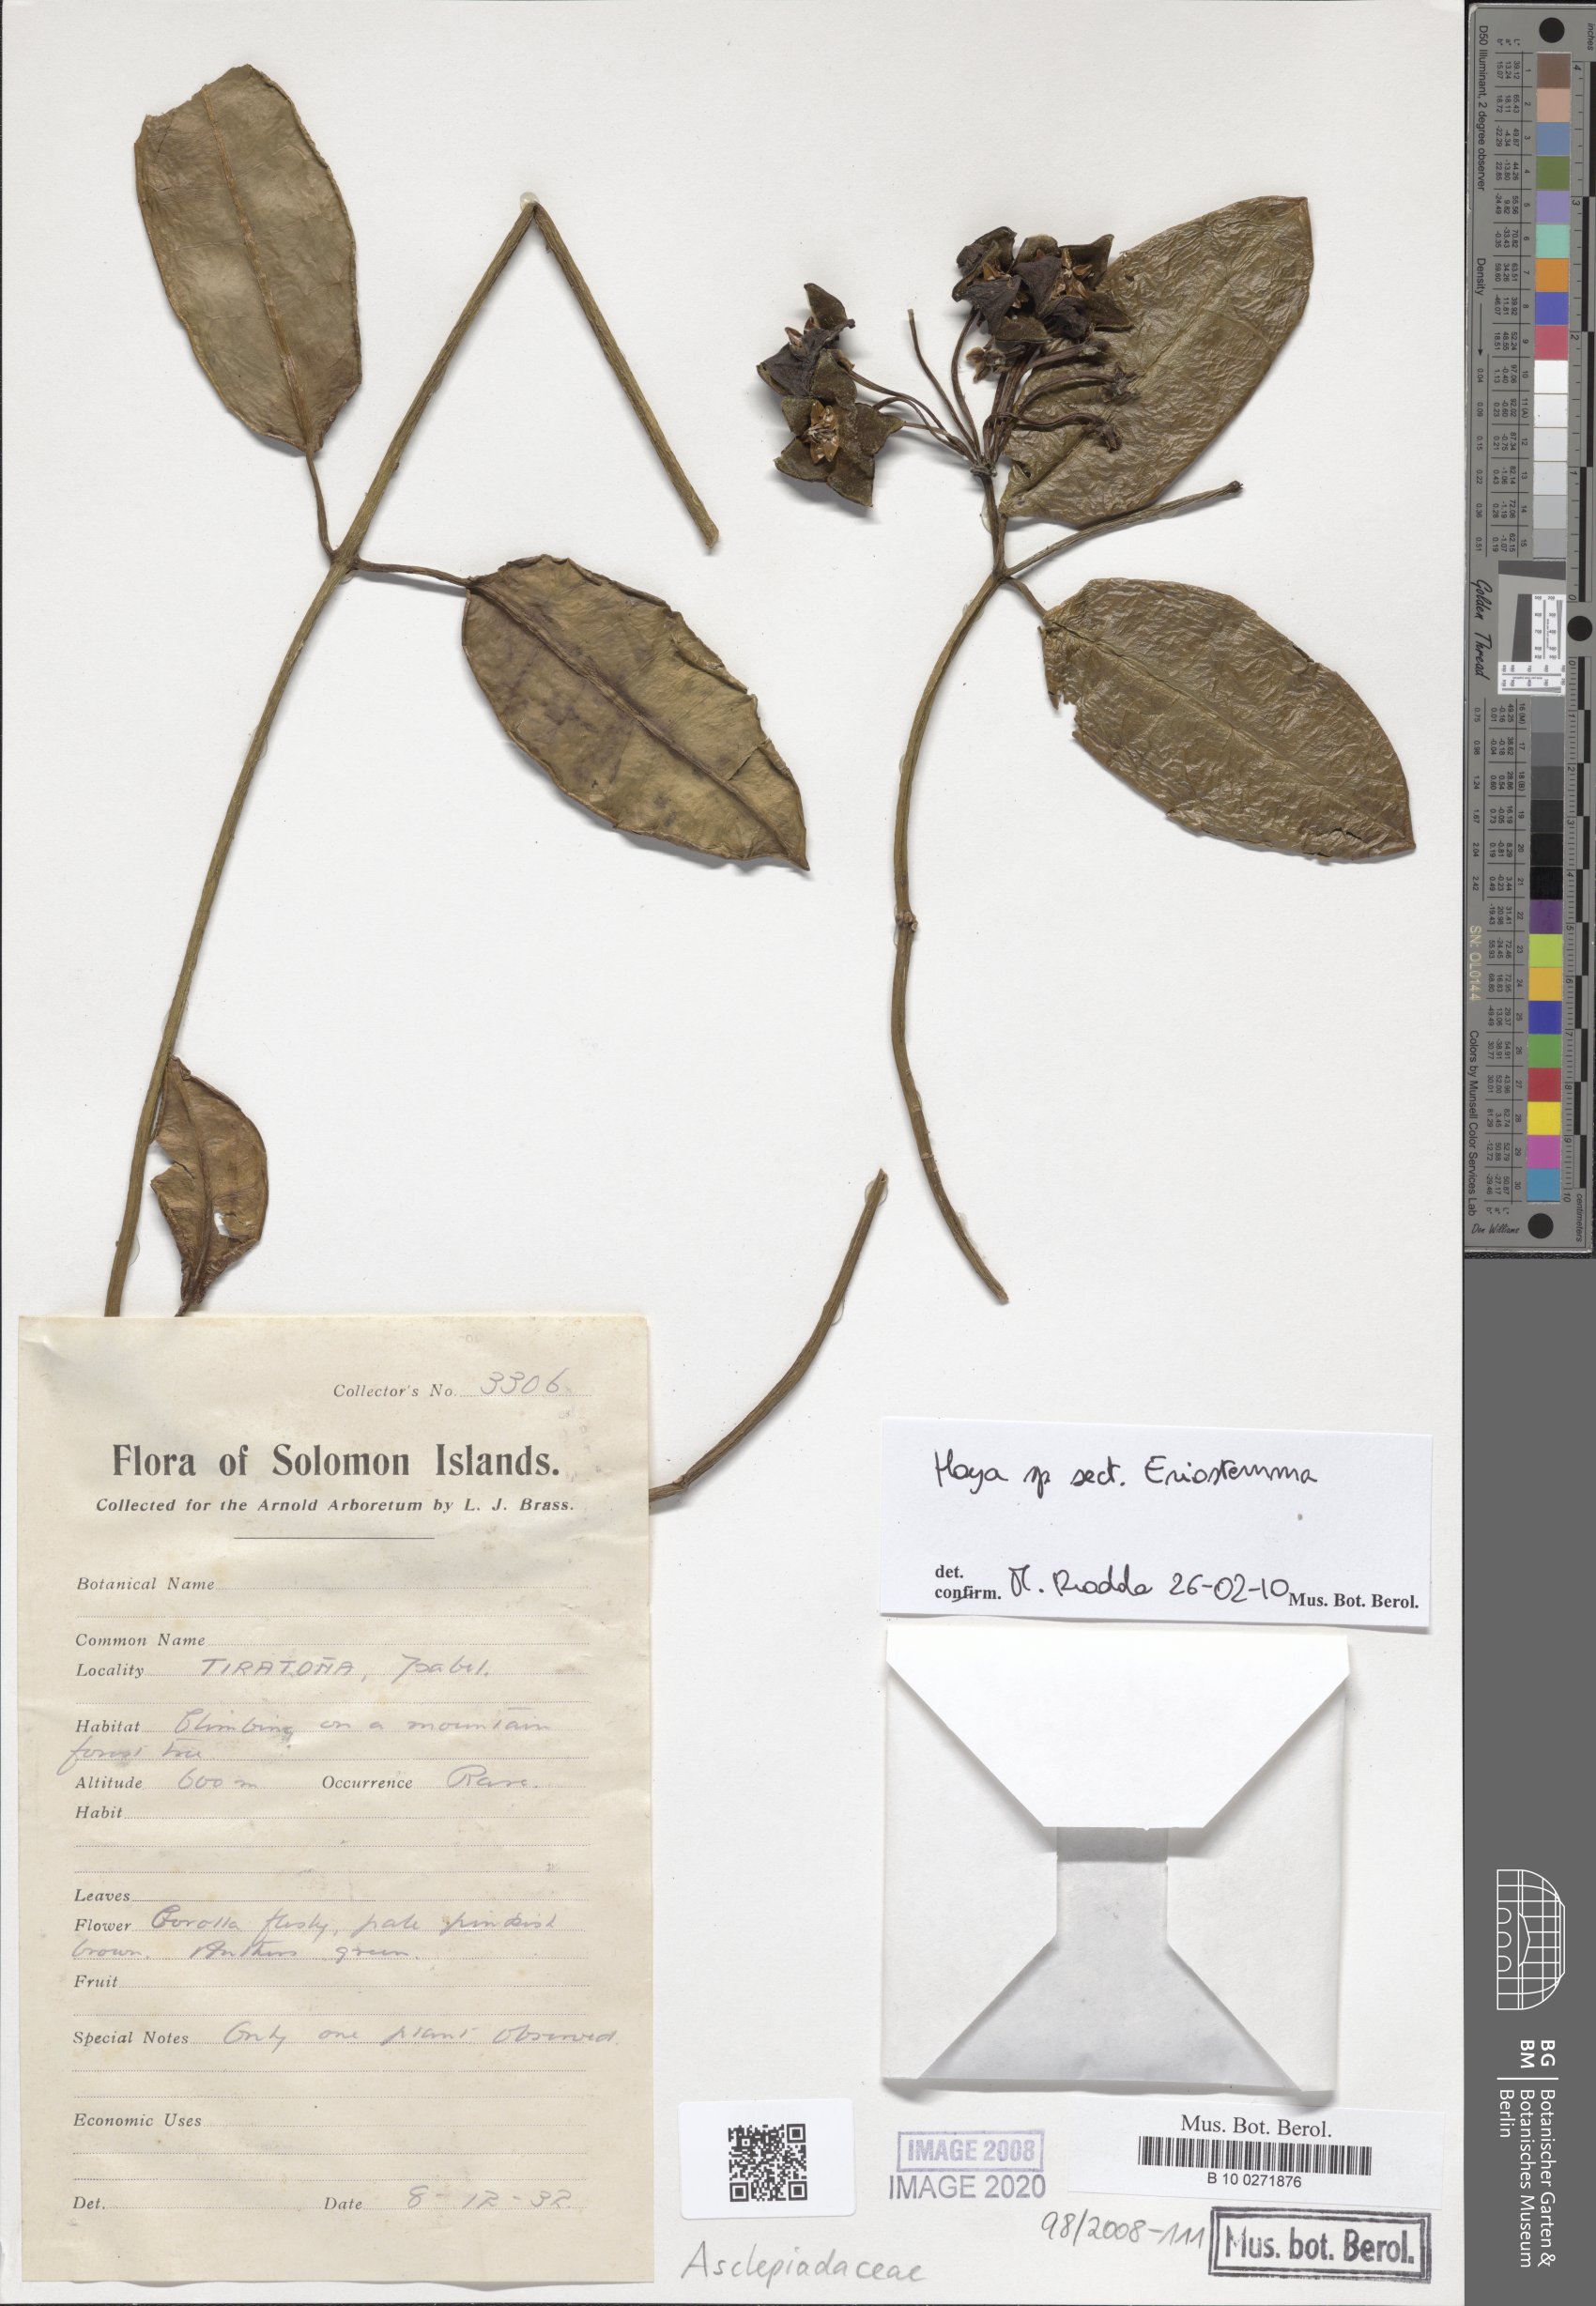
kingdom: Plantae
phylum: Tracheophyta
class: Magnoliopsida
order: Gentianales
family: Asclepiadaceae
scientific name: Asclepiadaceae
